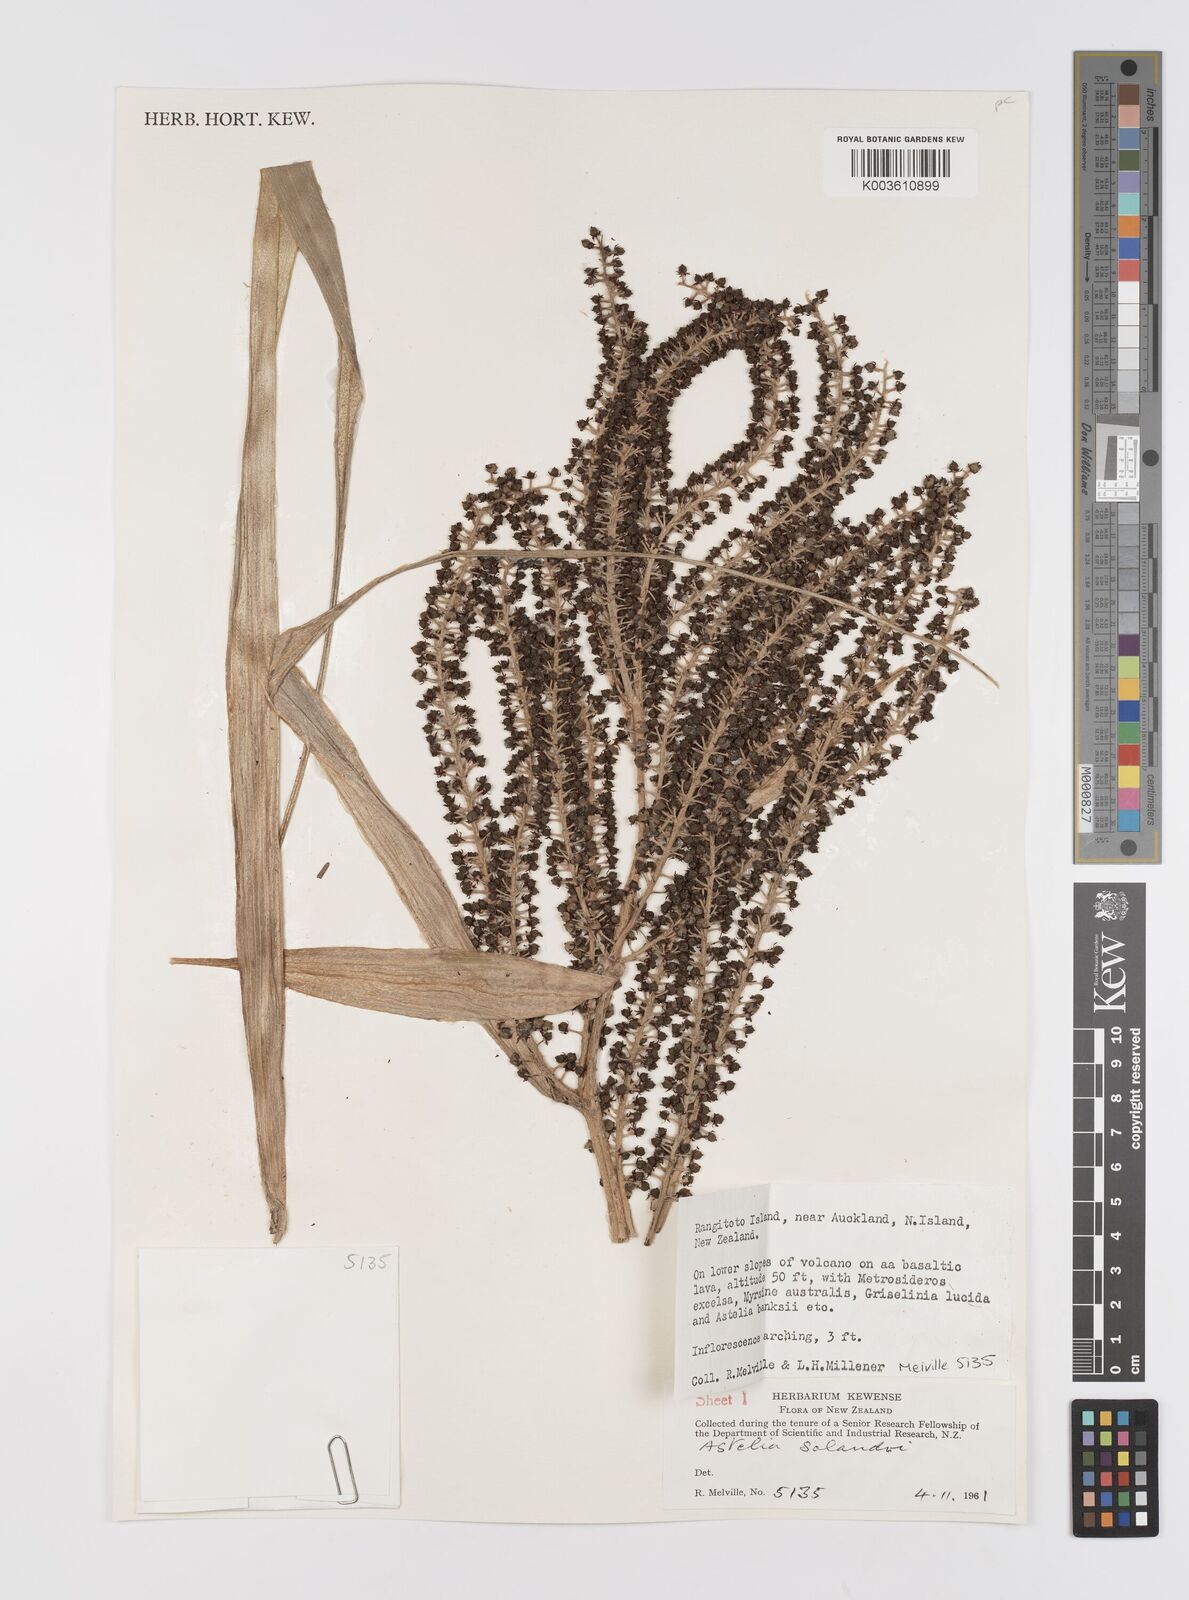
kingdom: Plantae
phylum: Tracheophyta
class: Liliopsida
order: Asparagales
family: Asteliaceae
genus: Astelia
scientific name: Astelia solandri
